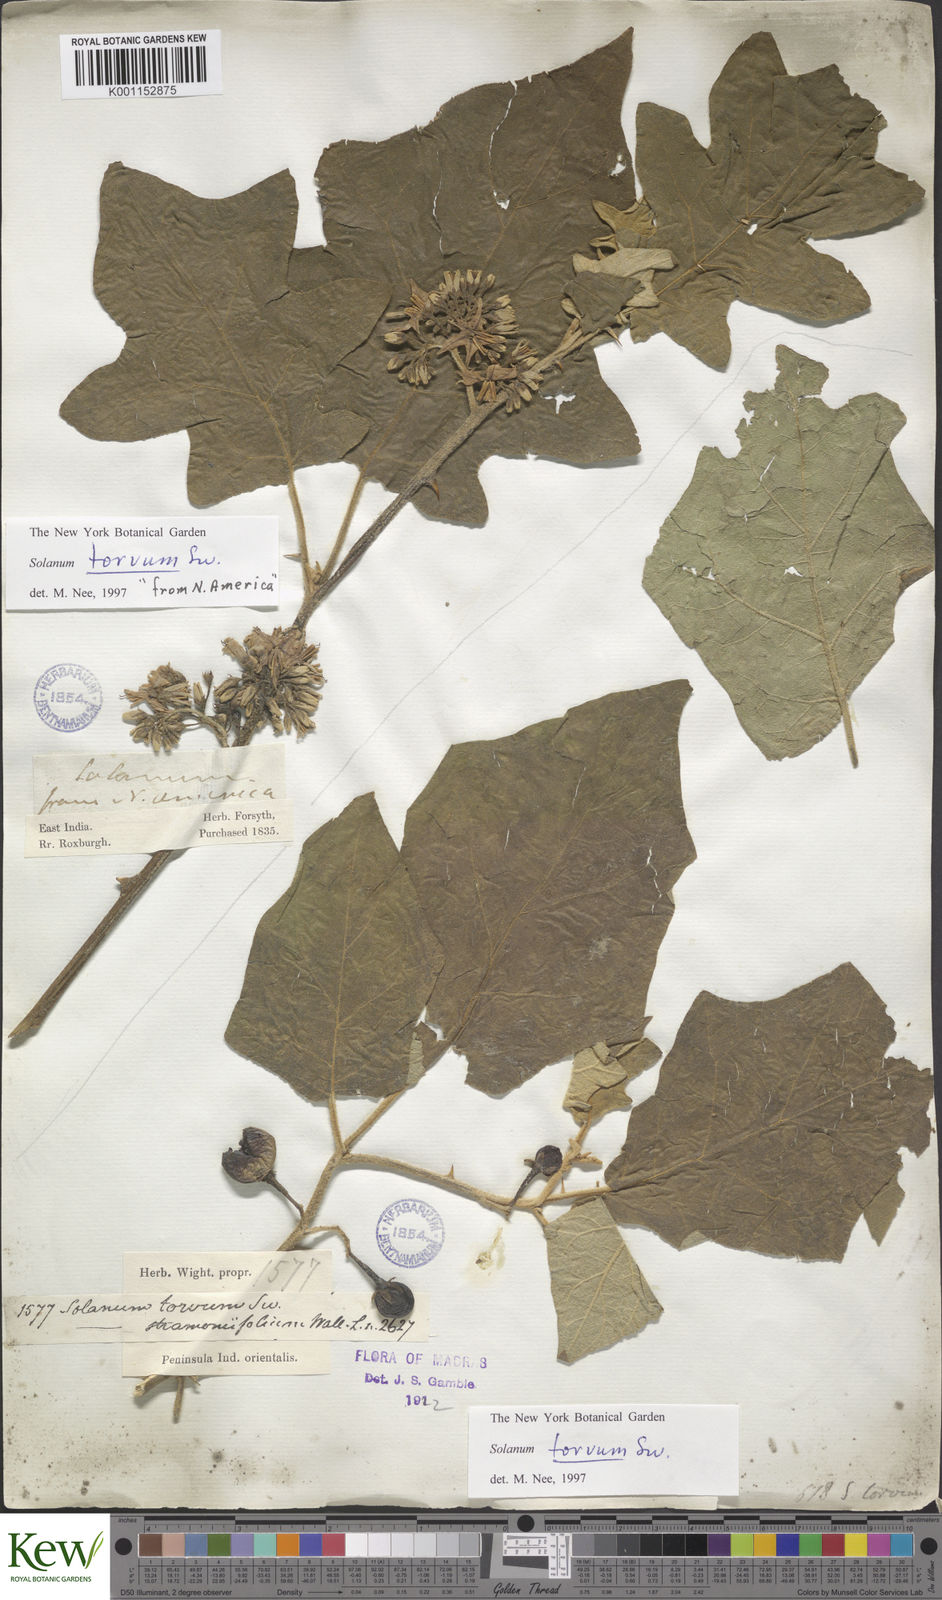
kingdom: Plantae
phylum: Tracheophyta
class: Magnoliopsida
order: Solanales
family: Solanaceae
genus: Solanum
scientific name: Solanum torvum
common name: Turkey berry
